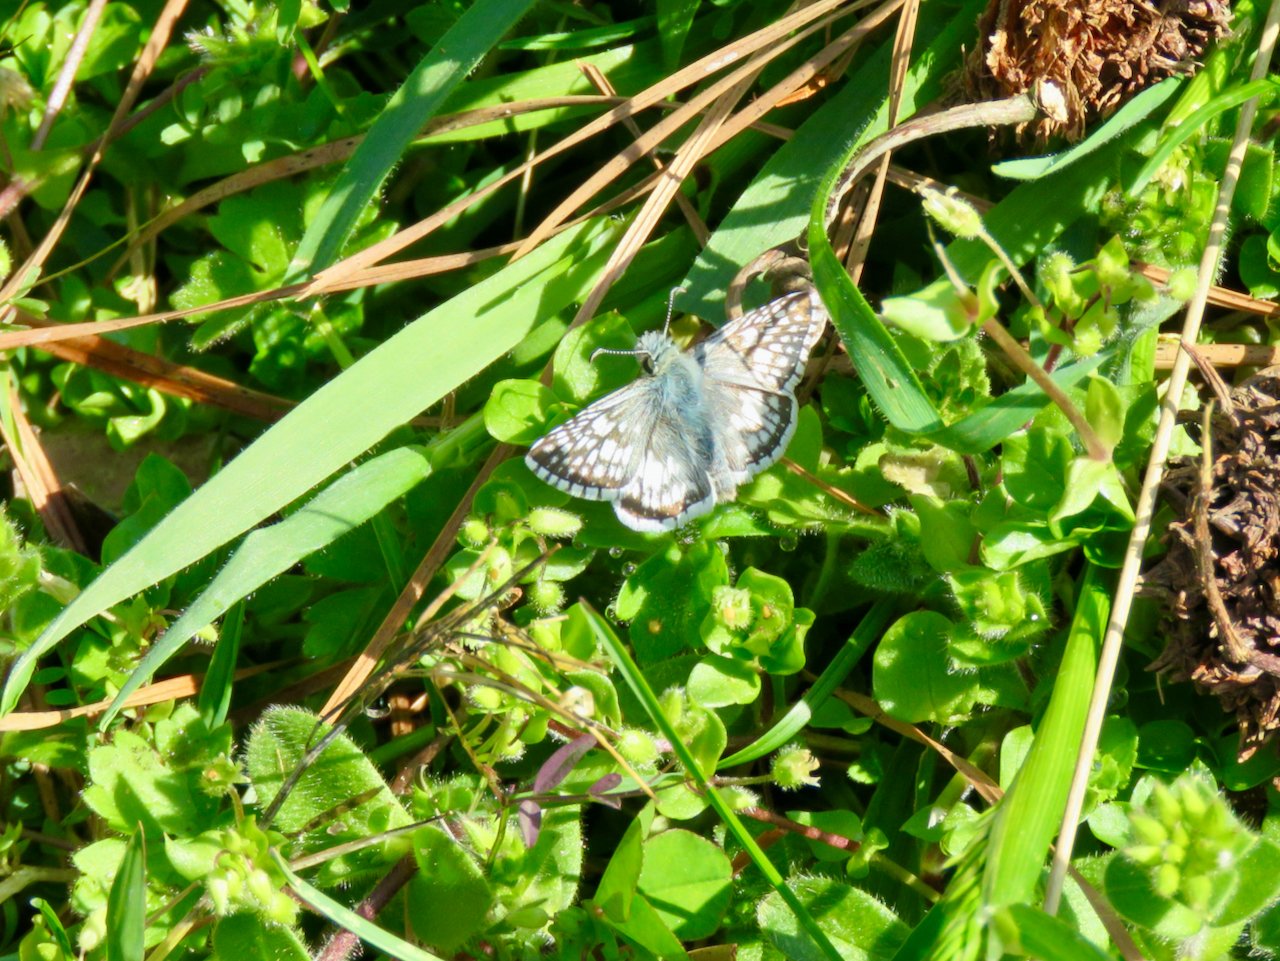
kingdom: Animalia
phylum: Arthropoda
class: Insecta
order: Lepidoptera
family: Hesperiidae
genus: Pyrgus
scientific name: Pyrgus communis
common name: Common Checkered-Skipper
